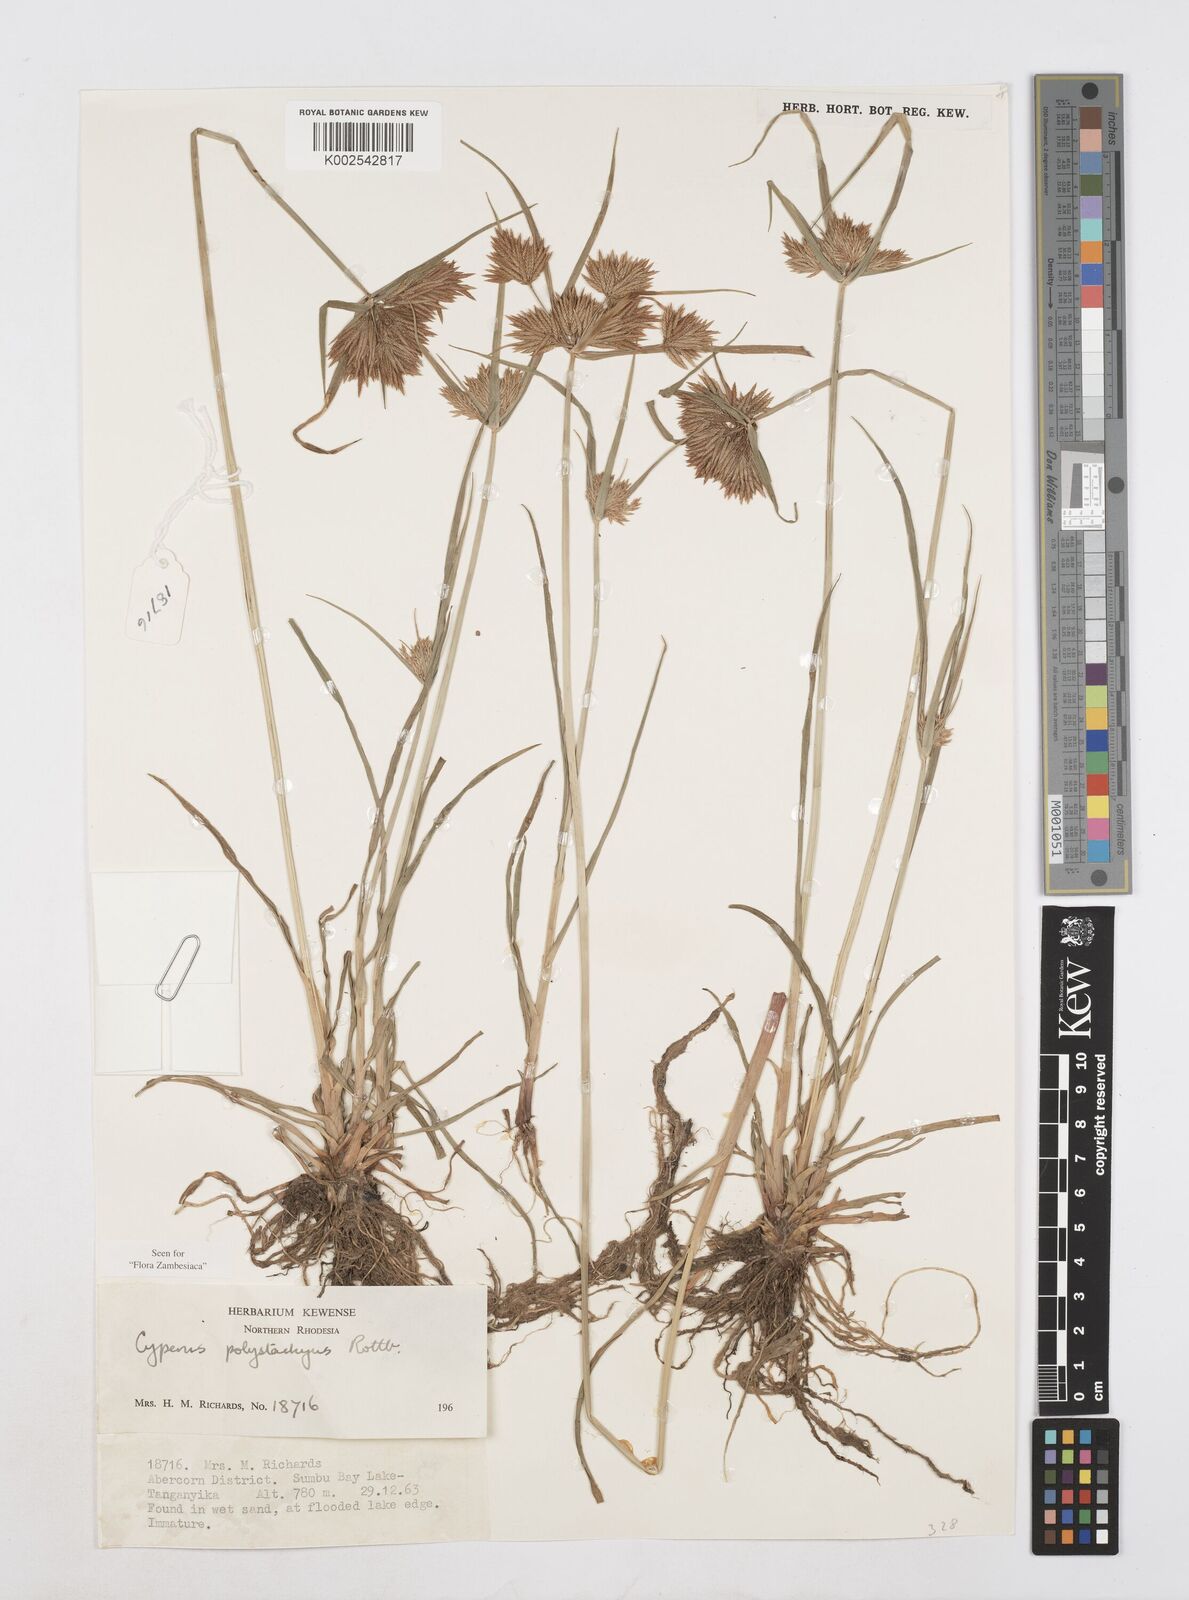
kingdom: Plantae
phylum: Tracheophyta
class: Liliopsida
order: Poales
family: Cyperaceae
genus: Cyperus
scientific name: Cyperus polystachyos
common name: Bunchy flat sedge
